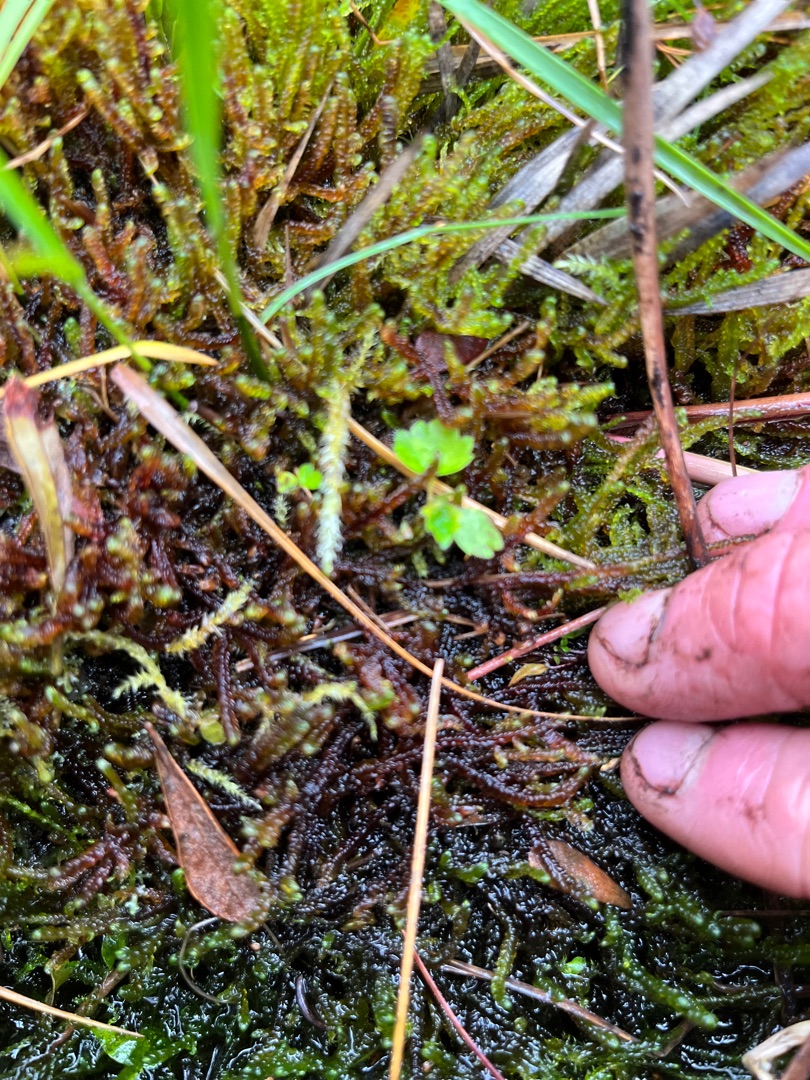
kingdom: Plantae
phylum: Bryophyta
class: Bryopsida
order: Hypnales
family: Scorpidiaceae
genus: Scorpidium
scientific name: Scorpidium revolvens
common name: Rød krumblad
